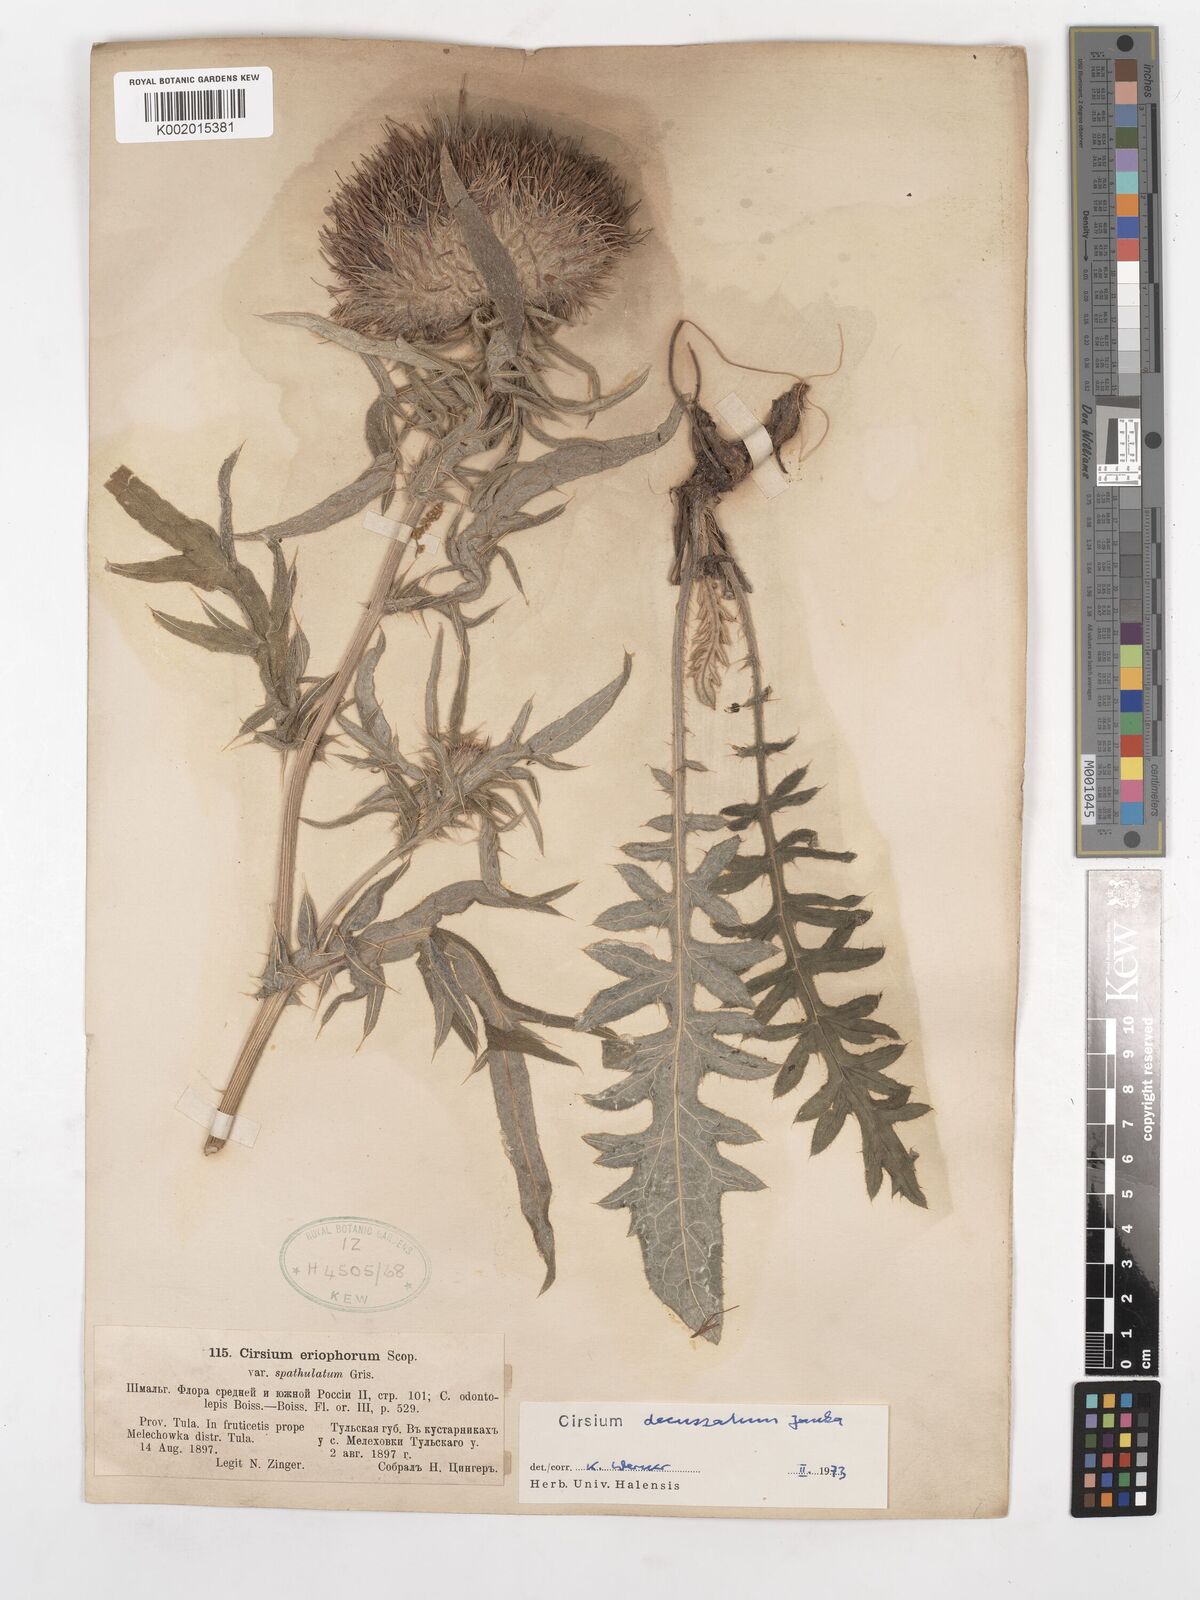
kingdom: Plantae
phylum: Tracheophyta
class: Magnoliopsida
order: Asterales
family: Asteraceae
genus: Lophiolepis
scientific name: Lophiolepis decussata
